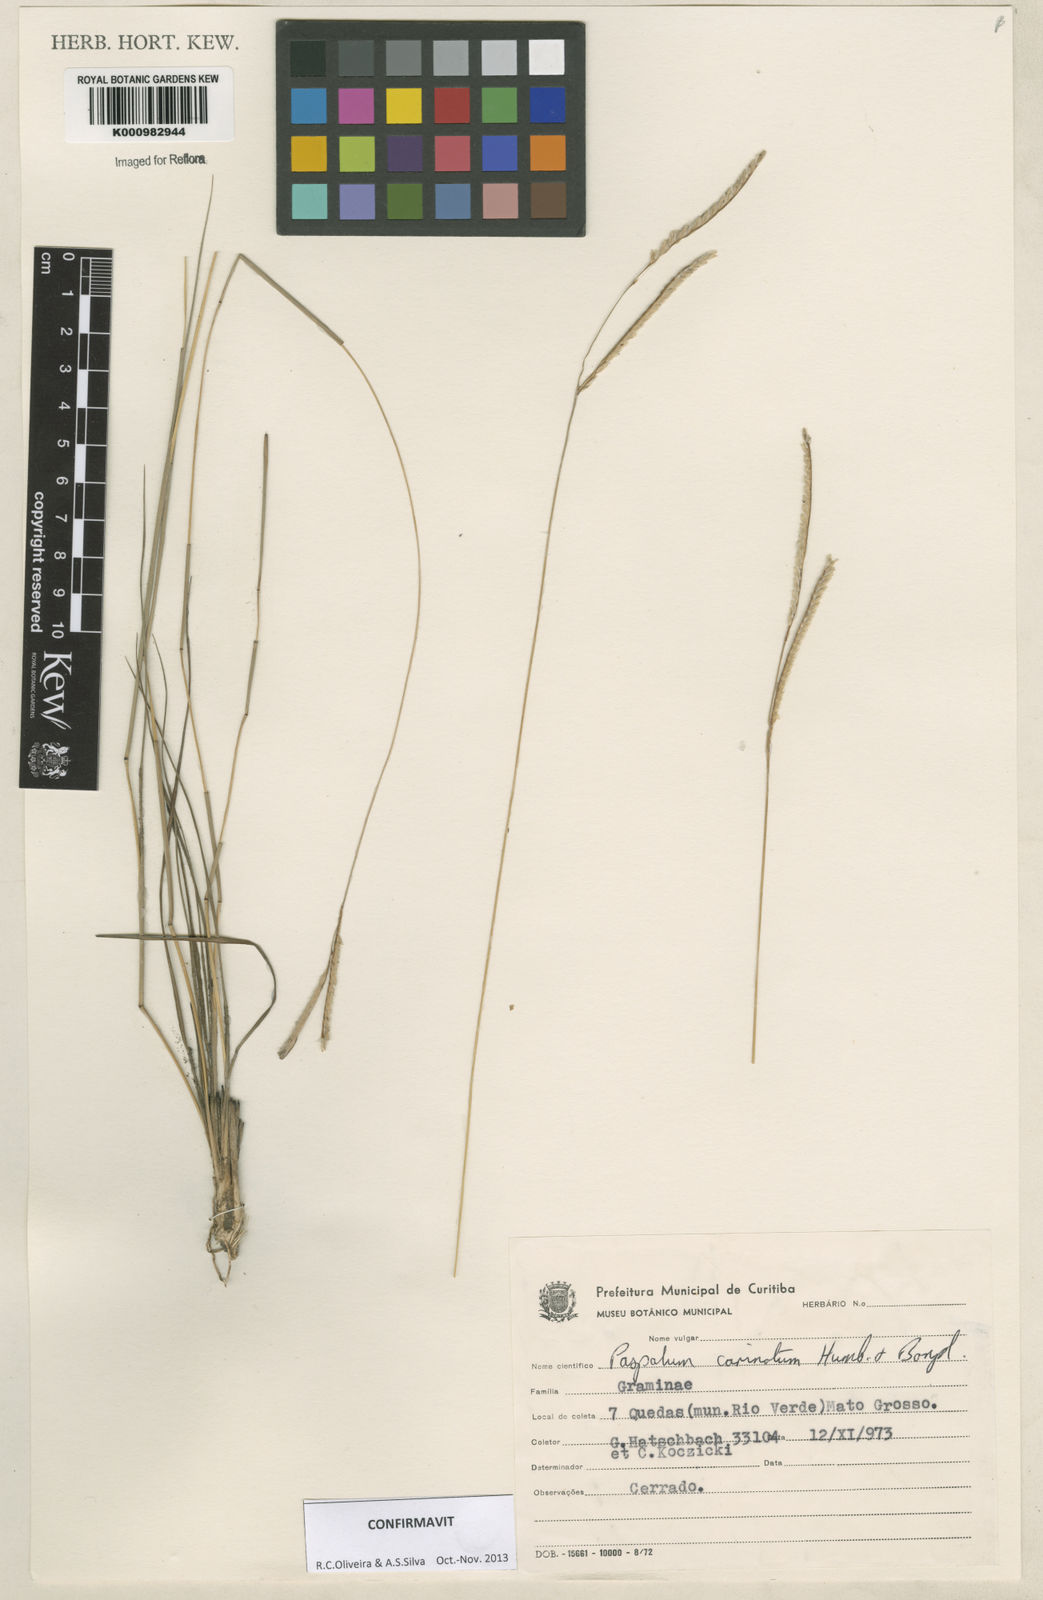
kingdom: Plantae
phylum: Tracheophyta
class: Liliopsida
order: Poales
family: Poaceae
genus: Paspalum
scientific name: Paspalum
